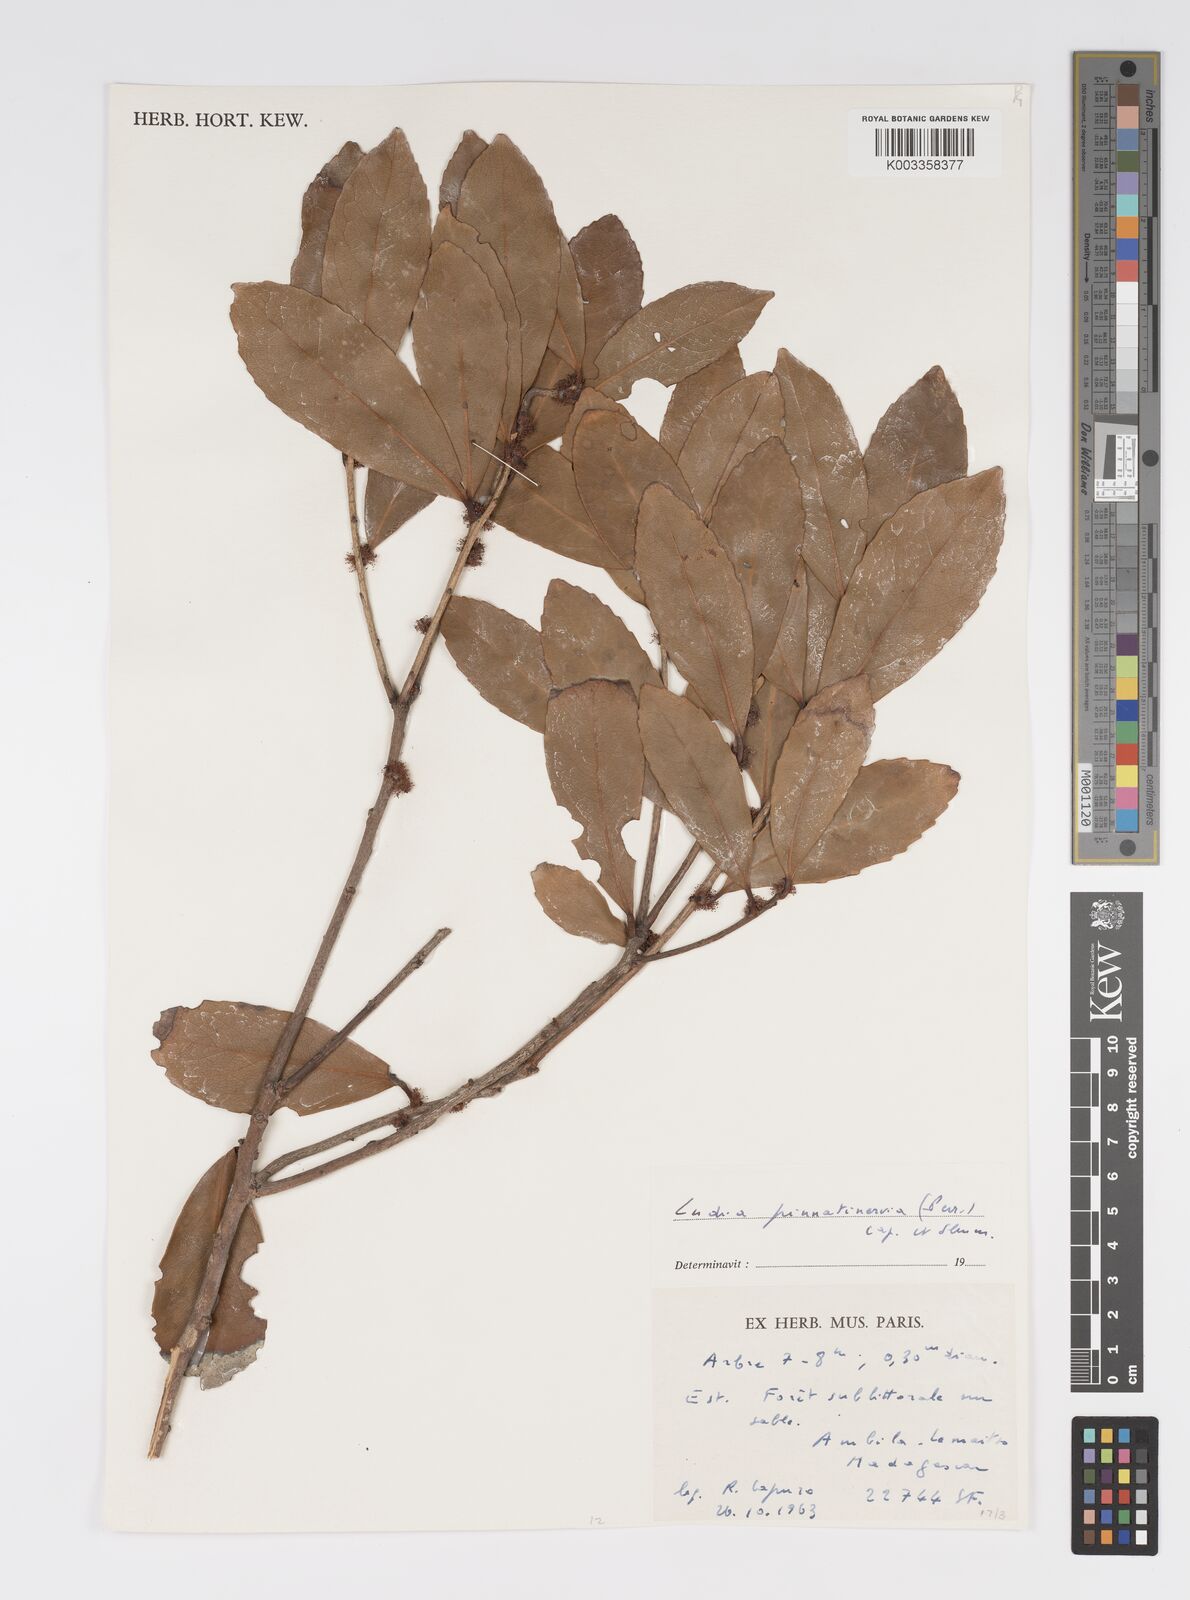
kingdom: Plantae
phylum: Tracheophyta
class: Magnoliopsida
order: Malpighiales
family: Salicaceae
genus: Ludia
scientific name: Ludia pinnatinervia
